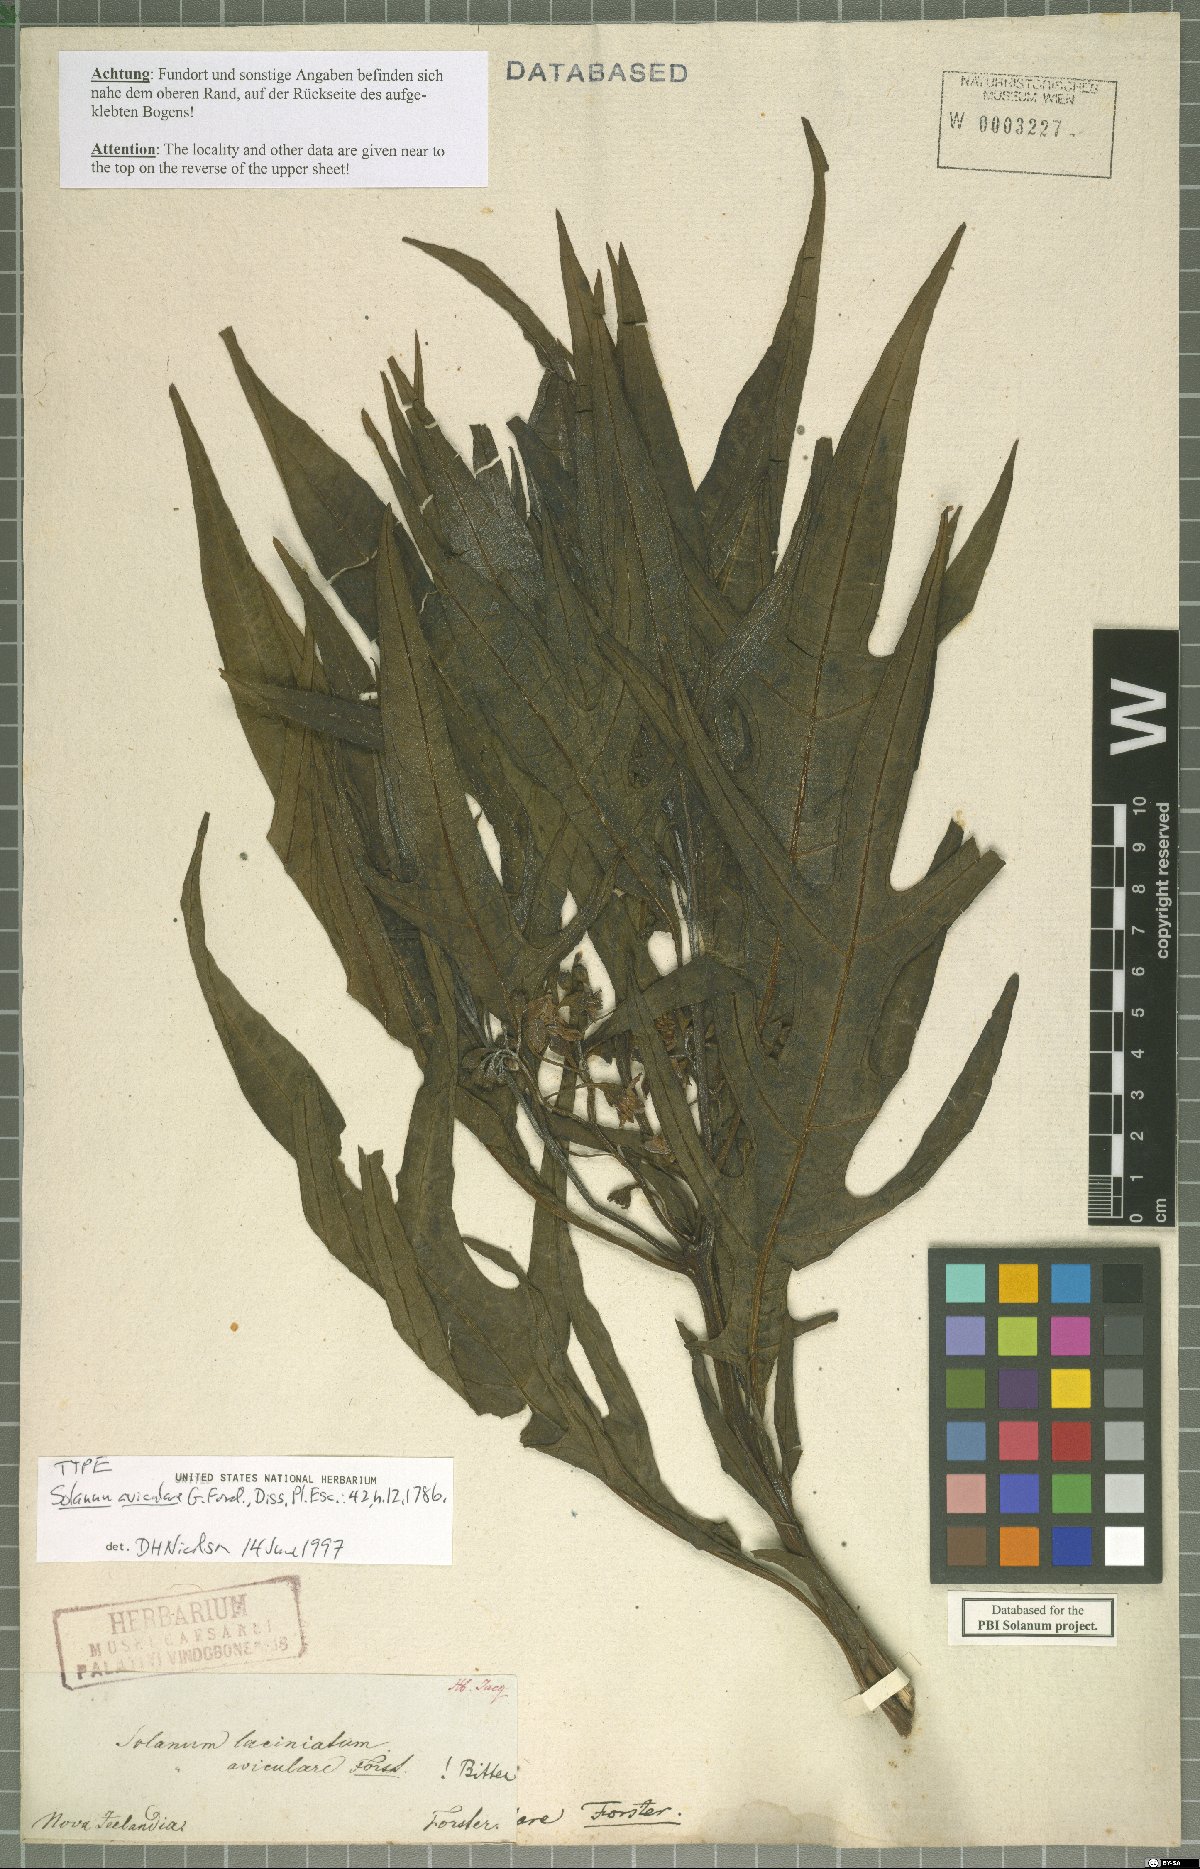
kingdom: Plantae
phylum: Tracheophyta
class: Magnoliopsida
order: Solanales
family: Solanaceae
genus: Solanum
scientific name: Solanum aviculare
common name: New zealand nightshade
